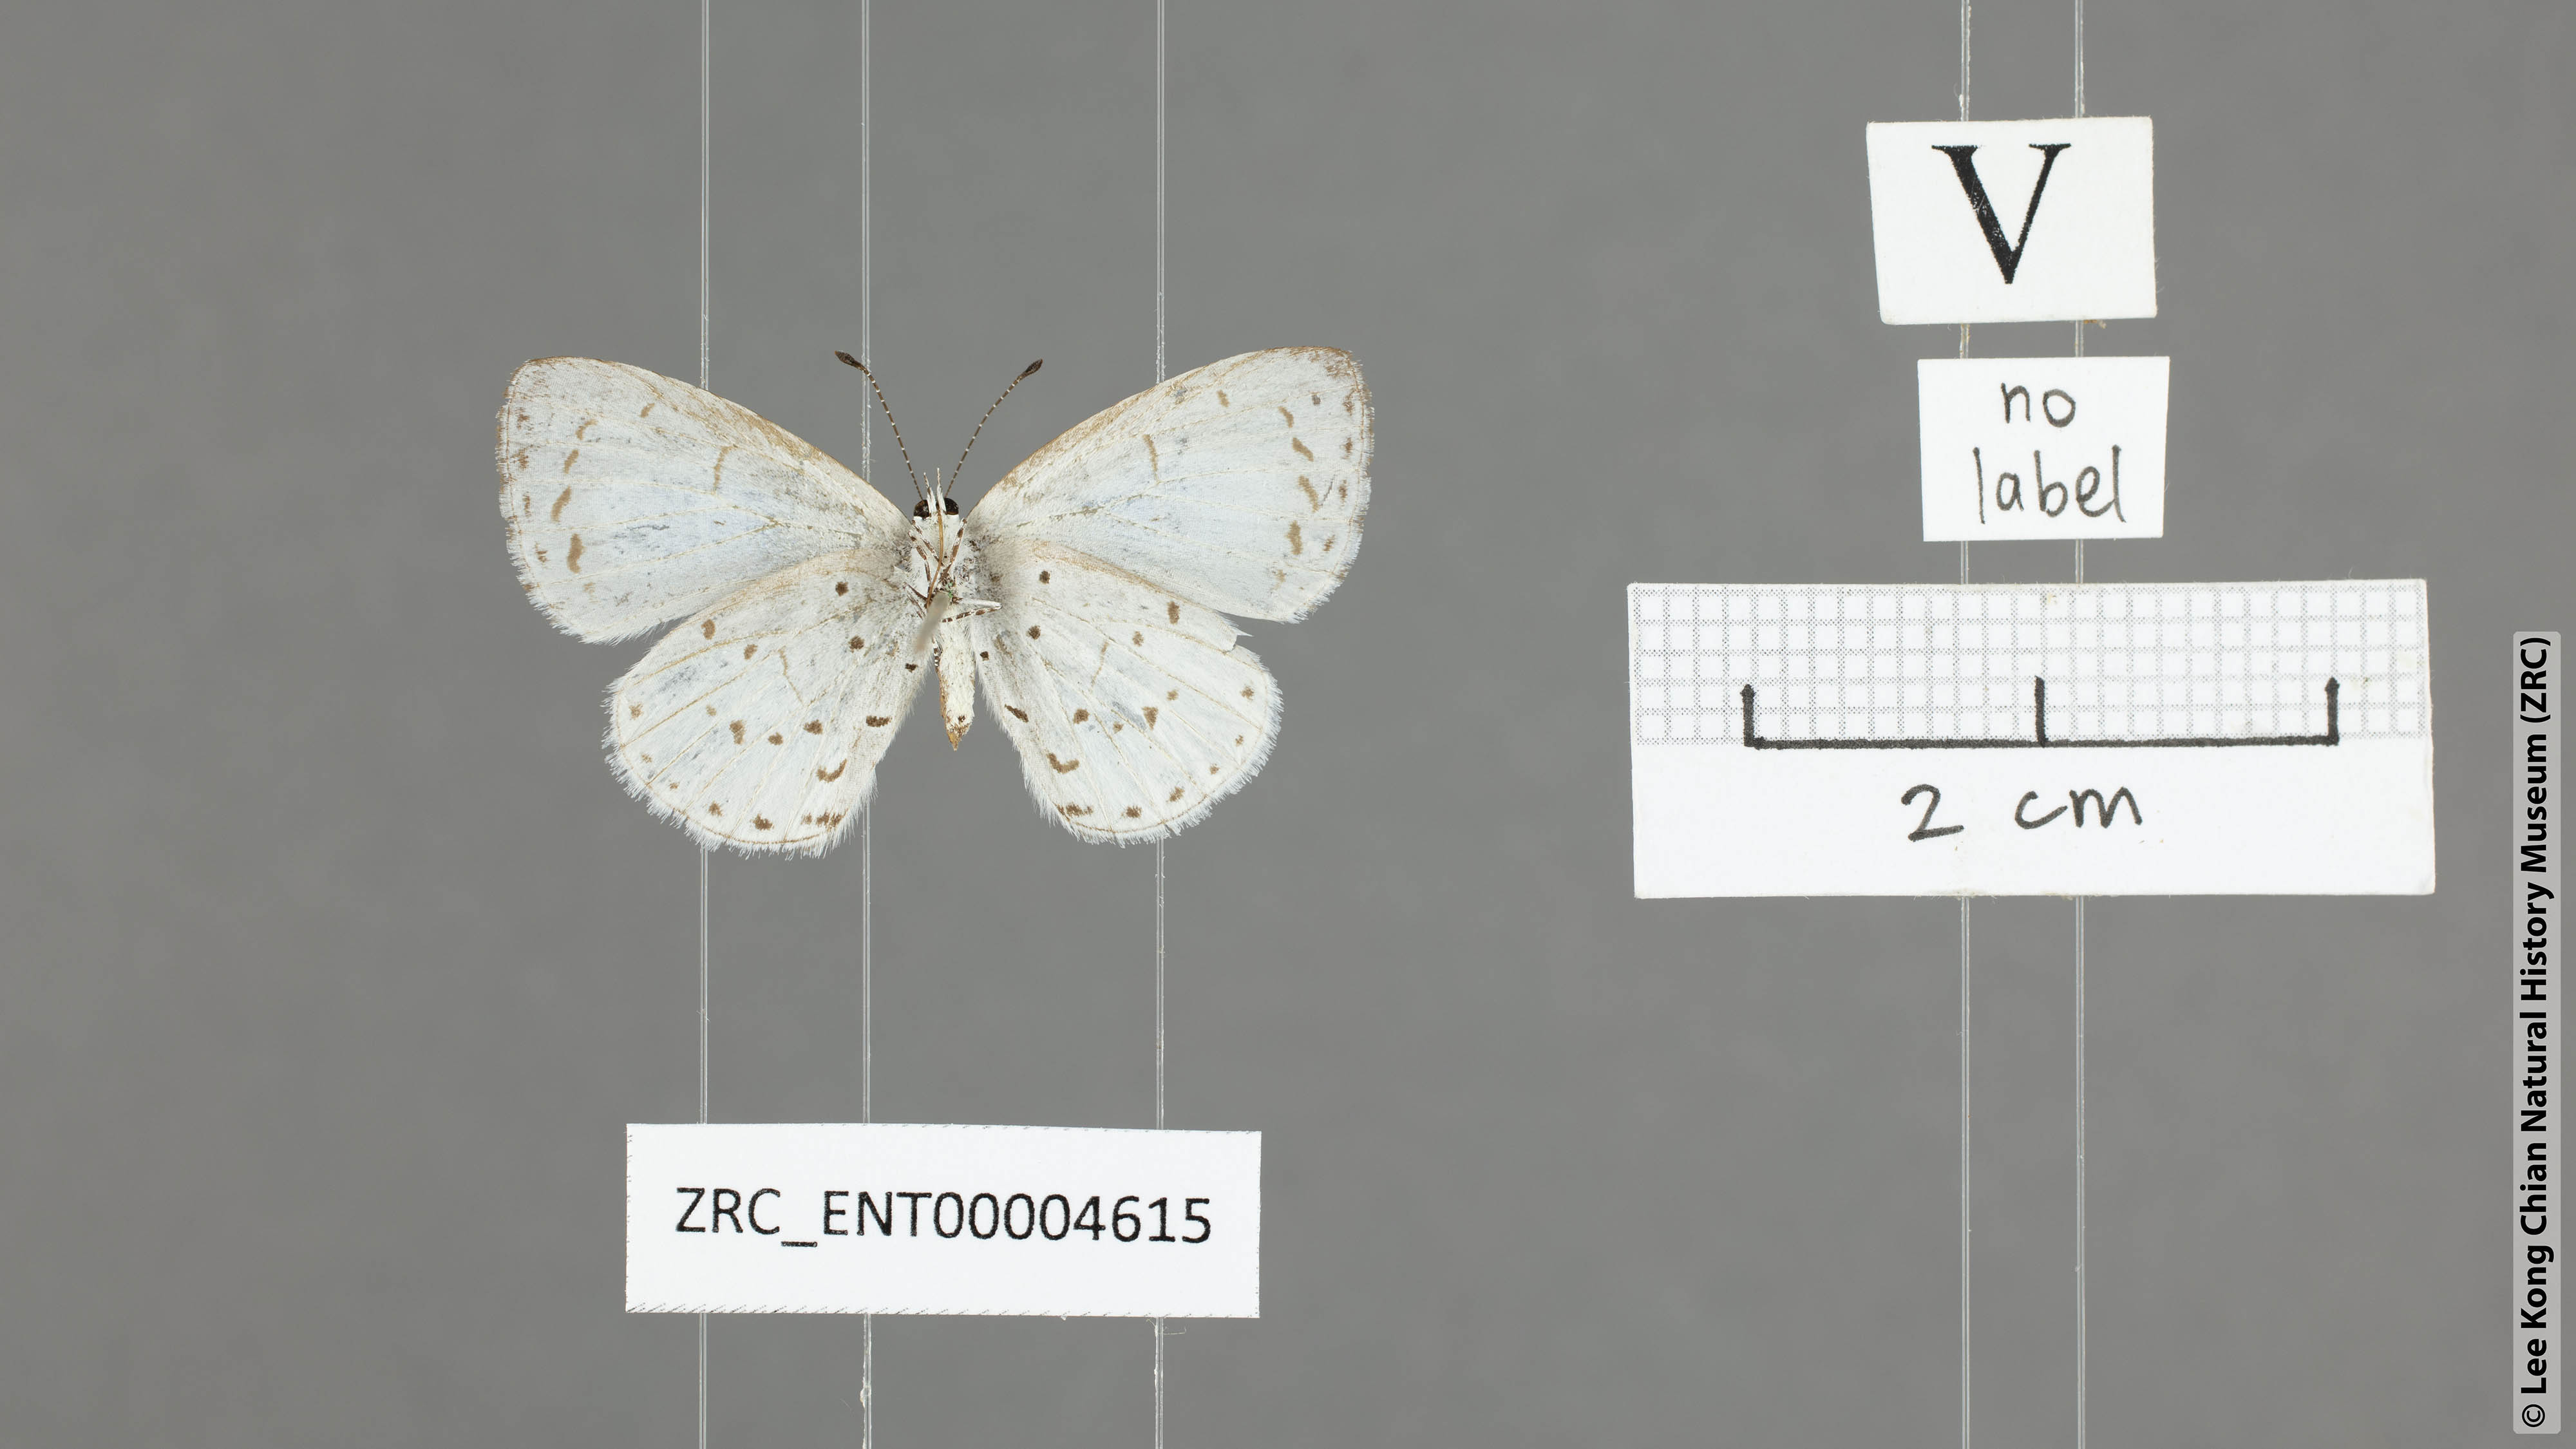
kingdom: Animalia
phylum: Arthropoda
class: Insecta
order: Lepidoptera
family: Lycaenidae
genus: Udara
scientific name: Udara albocaerulea
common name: Albocerulean
